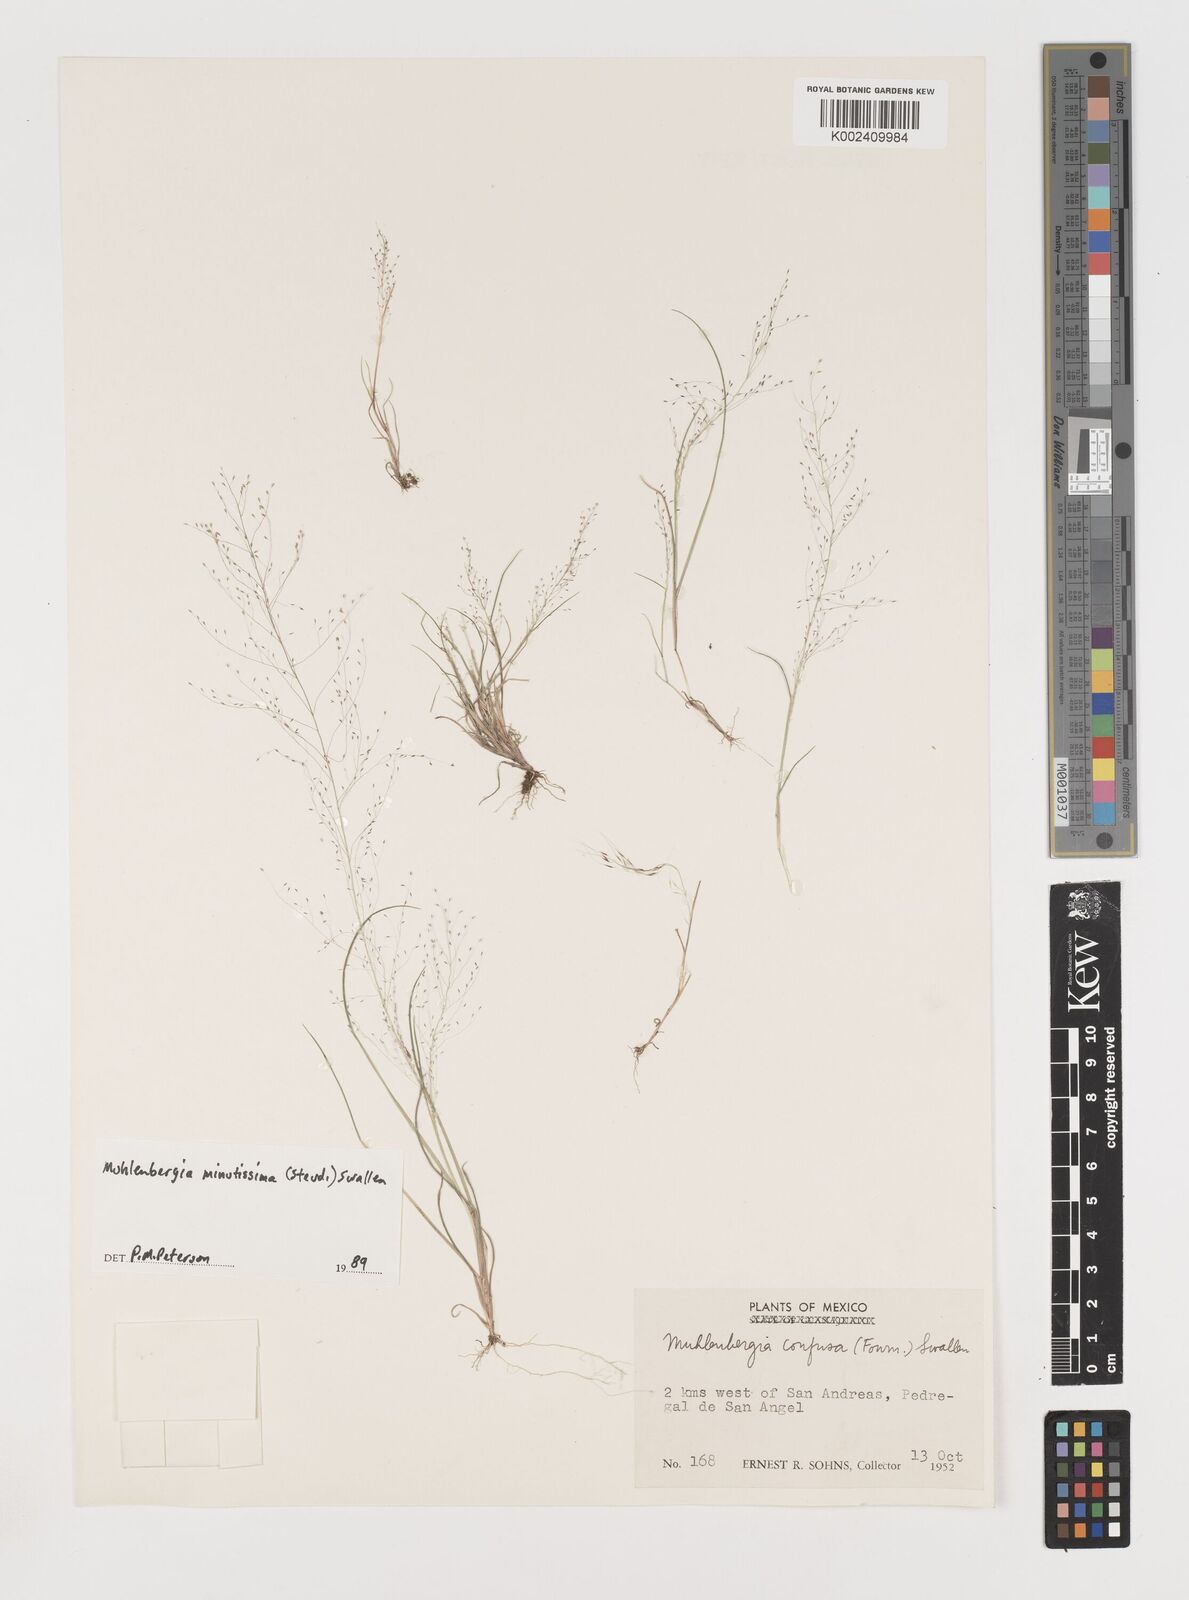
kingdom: Plantae
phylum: Tracheophyta
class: Liliopsida
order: Poales
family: Poaceae
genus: Muhlenbergia
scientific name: Muhlenbergia minutissima
